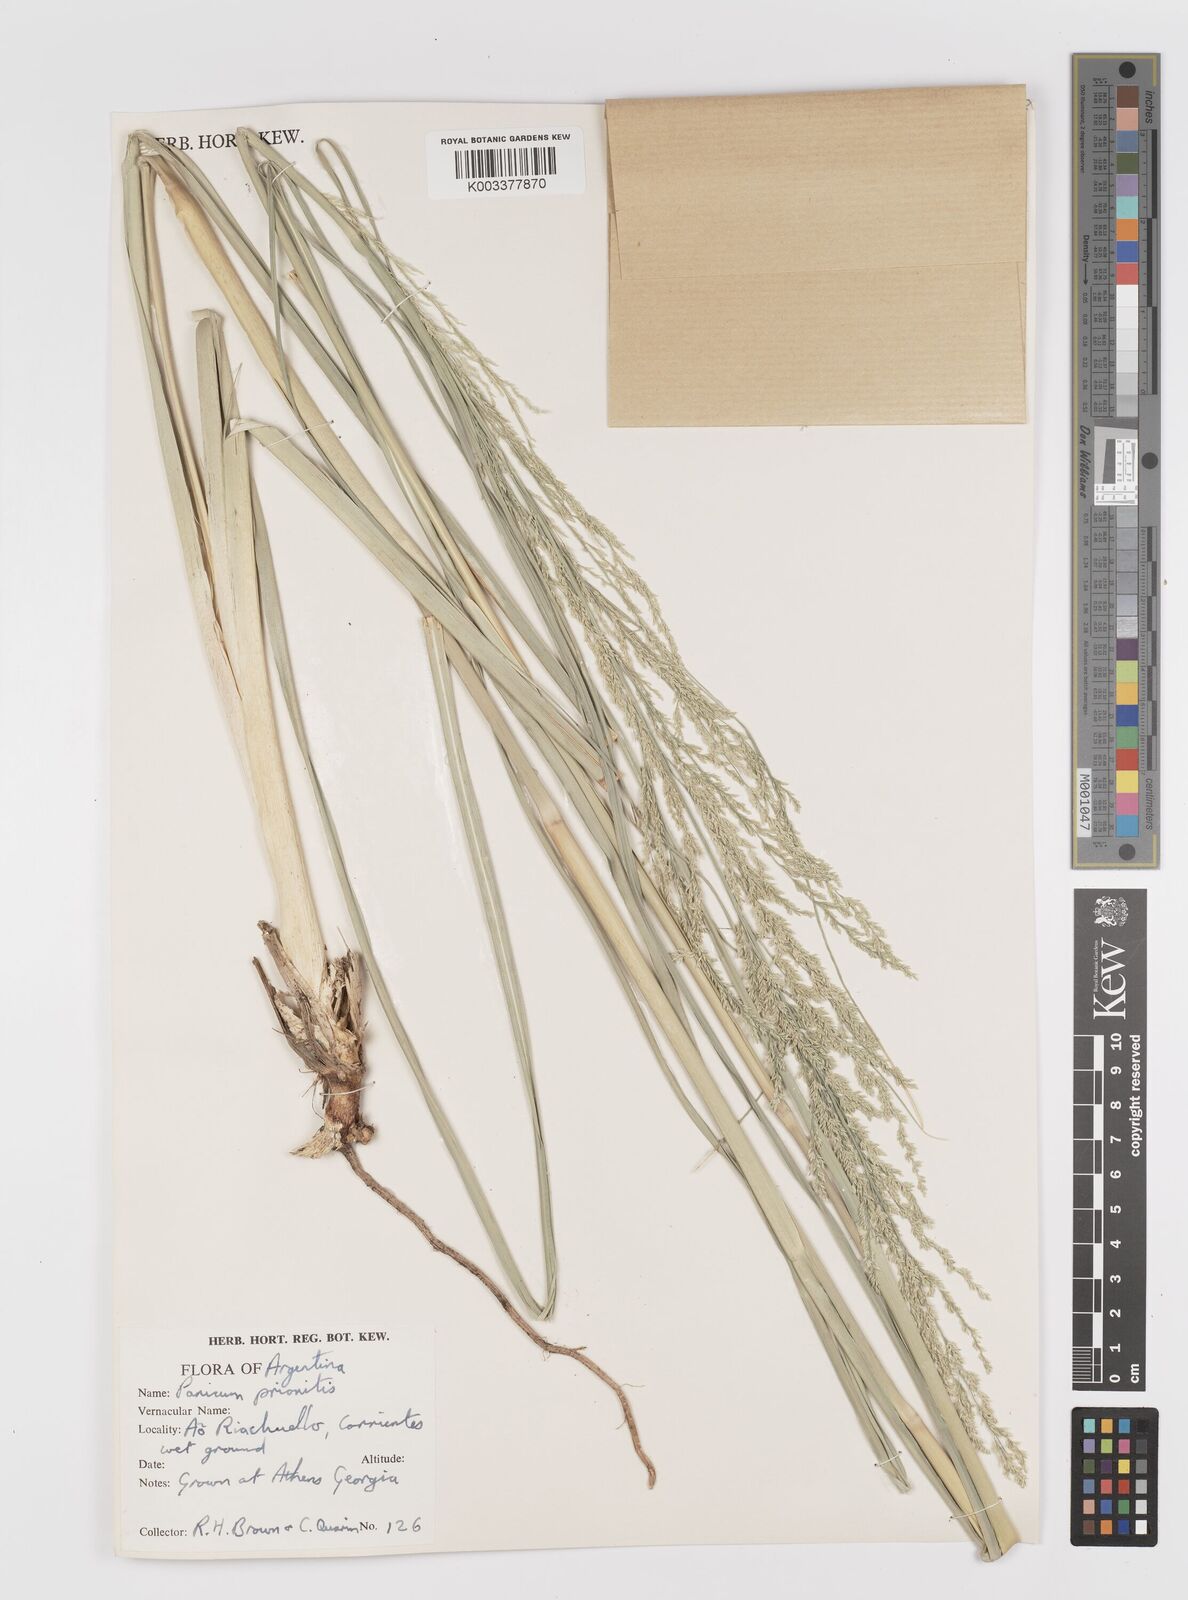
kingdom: Plantae
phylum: Tracheophyta
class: Liliopsida
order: Poales
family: Poaceae
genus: Coleataenia
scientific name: Coleataenia prionitis
